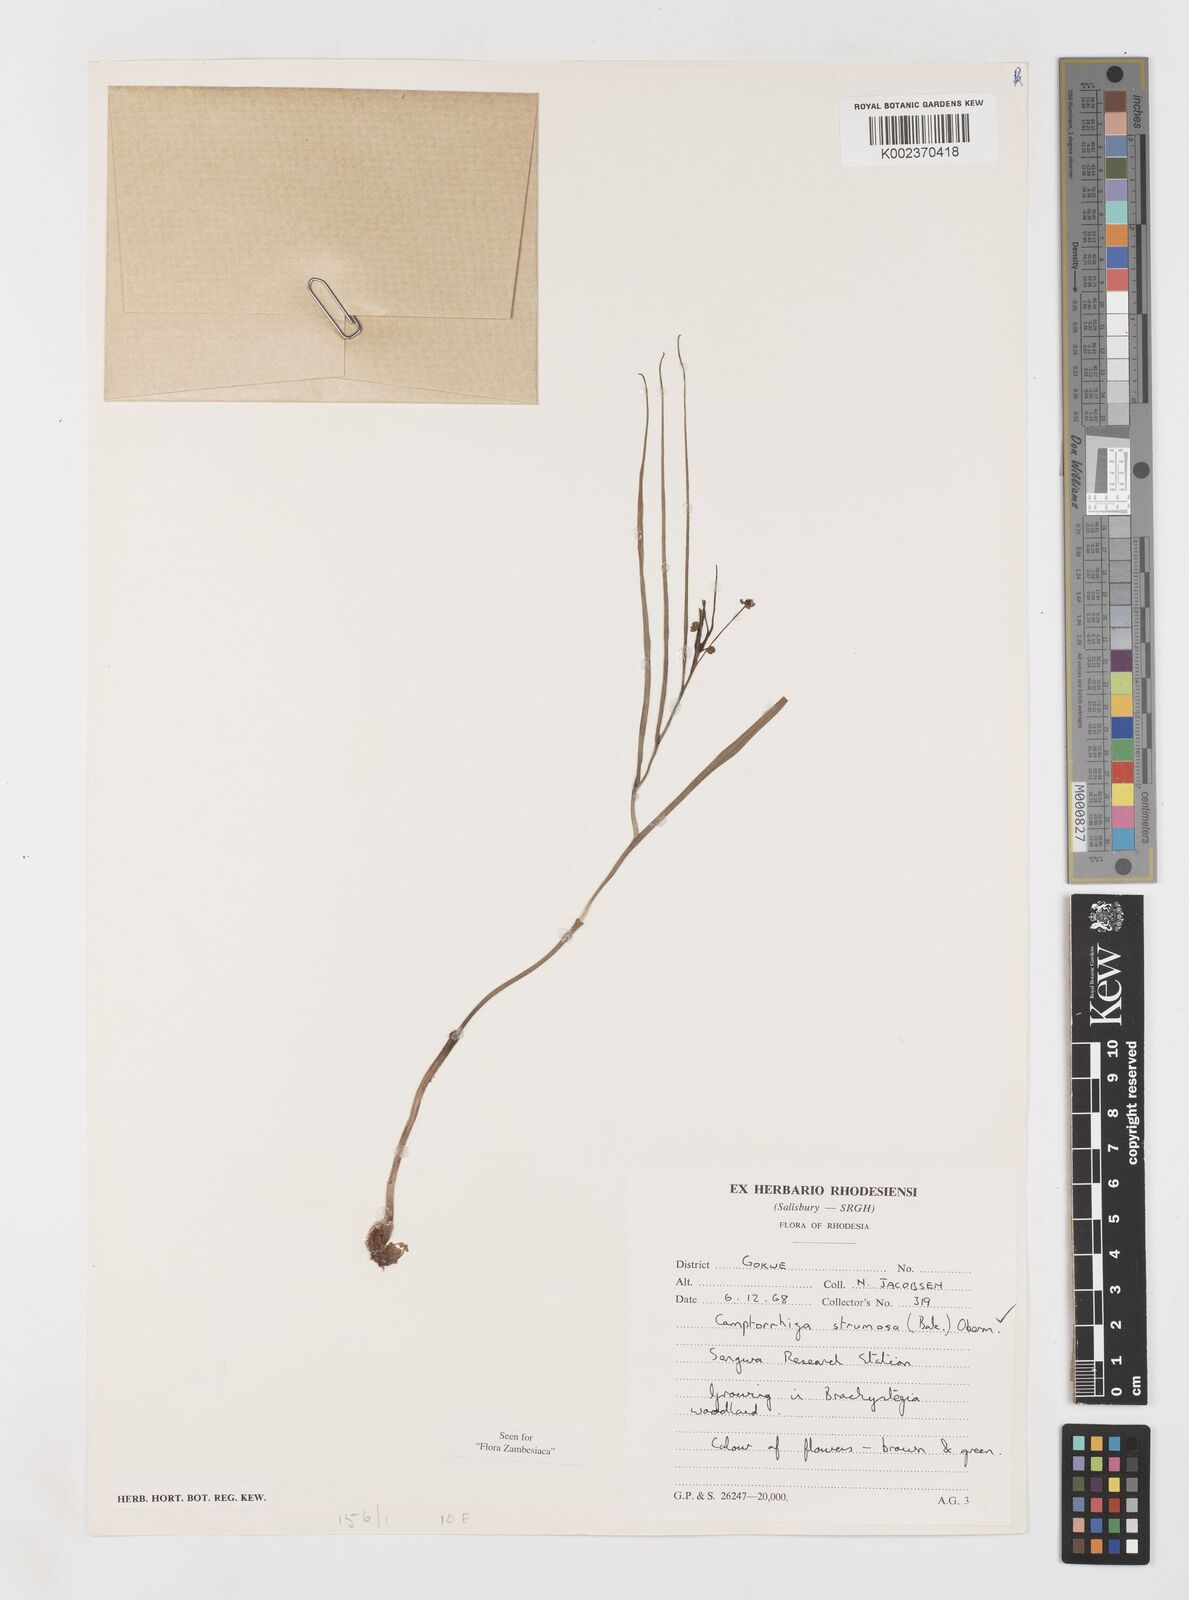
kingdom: Plantae
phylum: Tracheophyta
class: Liliopsida
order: Liliales
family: Colchicaceae
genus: Camptorrhiza
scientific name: Camptorrhiza strumosa
